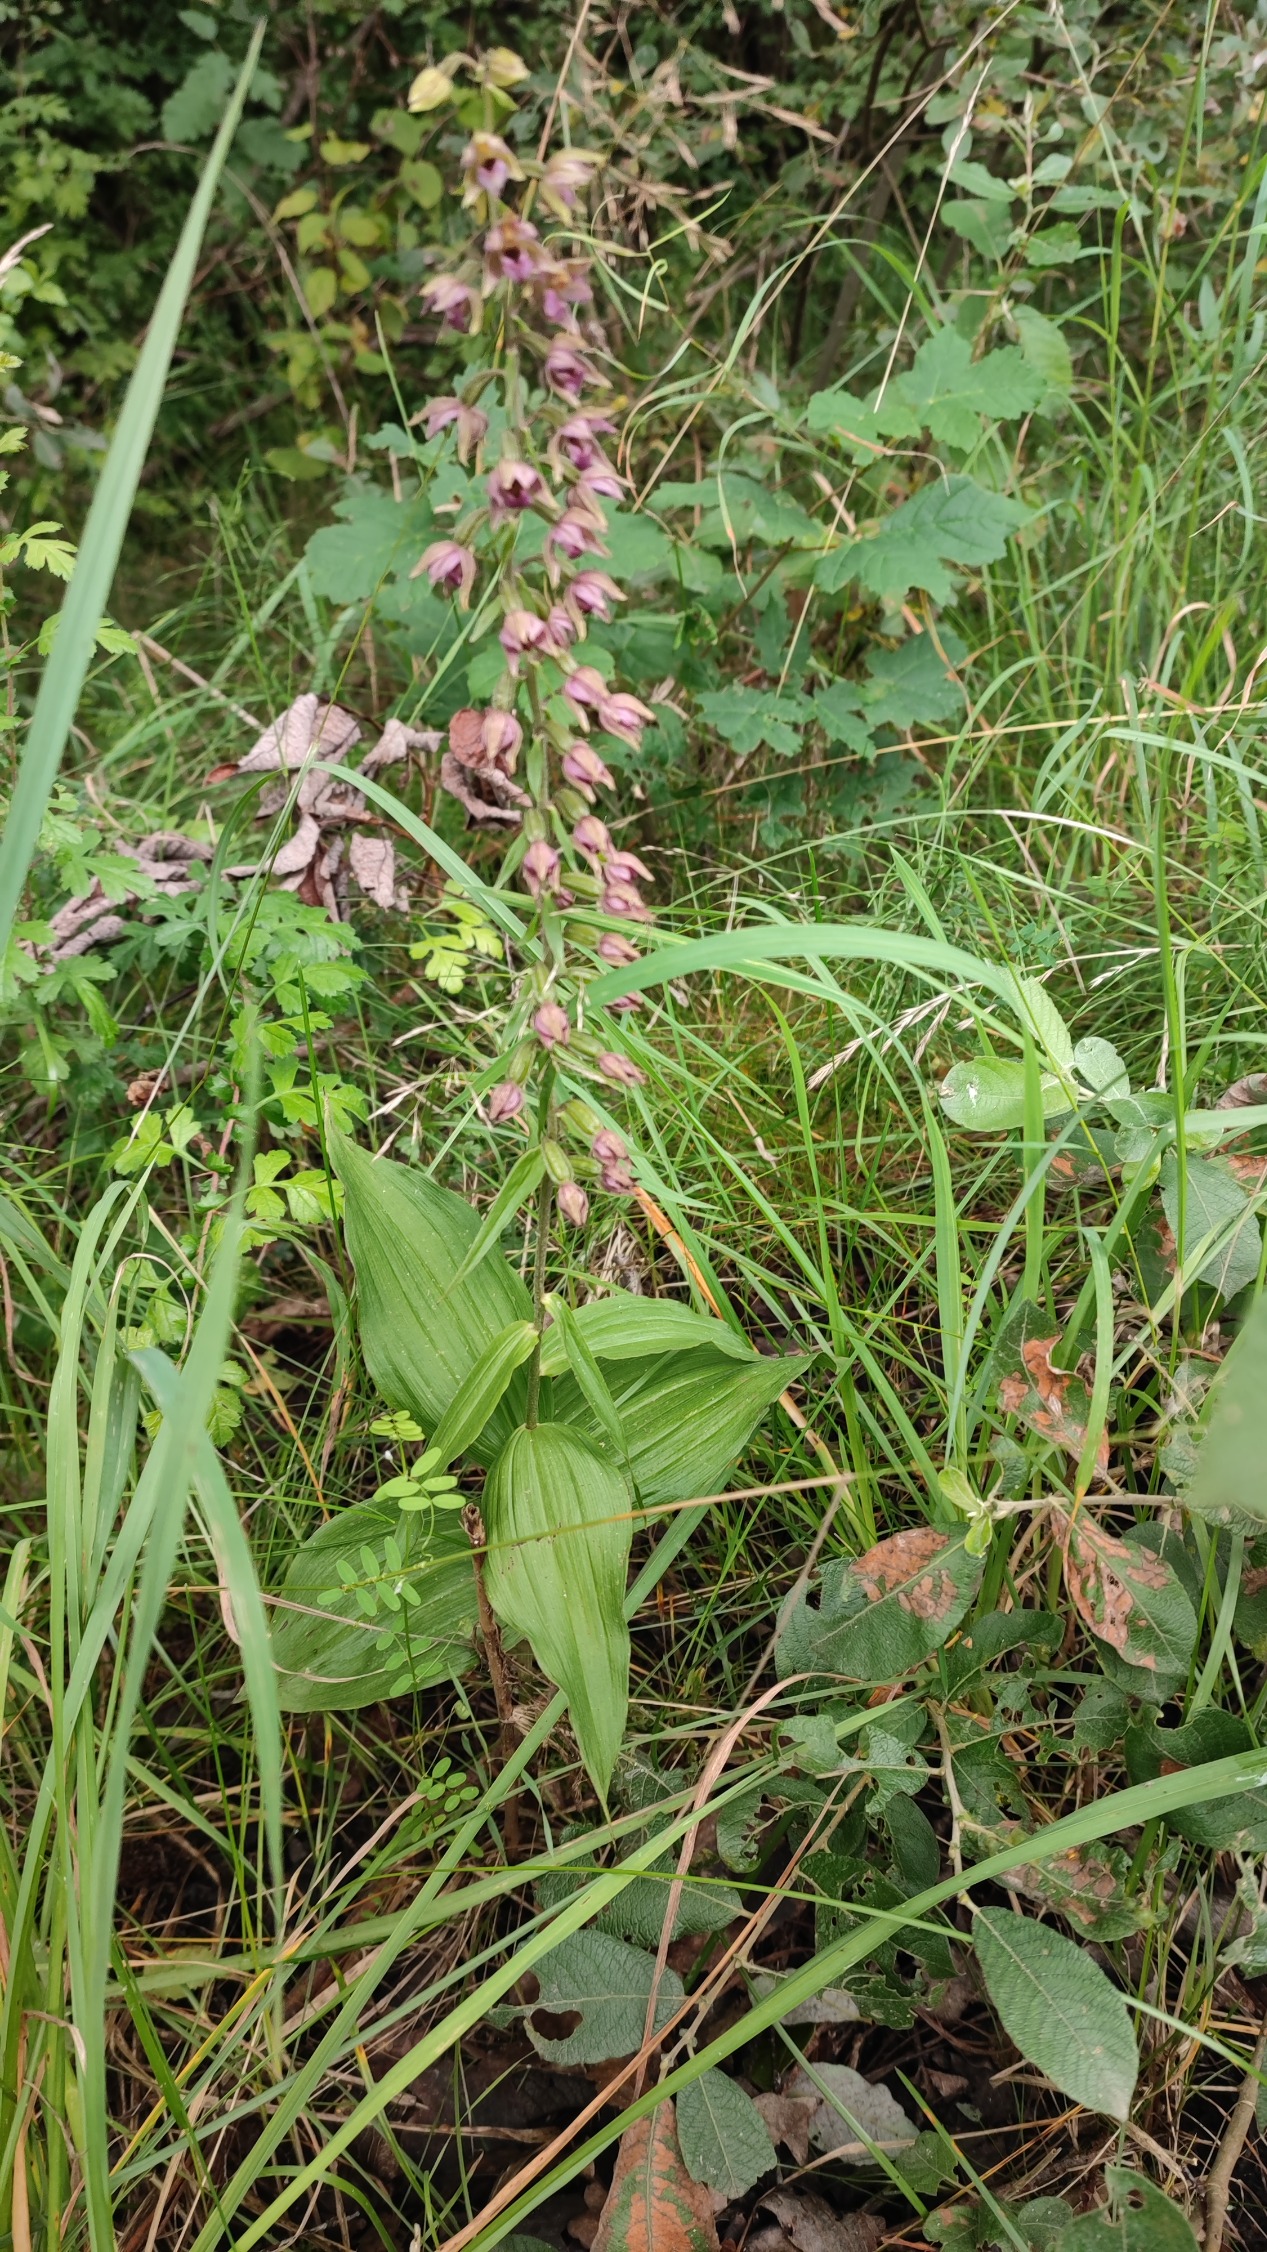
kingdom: Plantae
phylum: Tracheophyta
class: Liliopsida
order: Asparagales
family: Orchidaceae
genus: Epipactis
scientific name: Epipactis helleborine
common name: Skov-hullæbe
